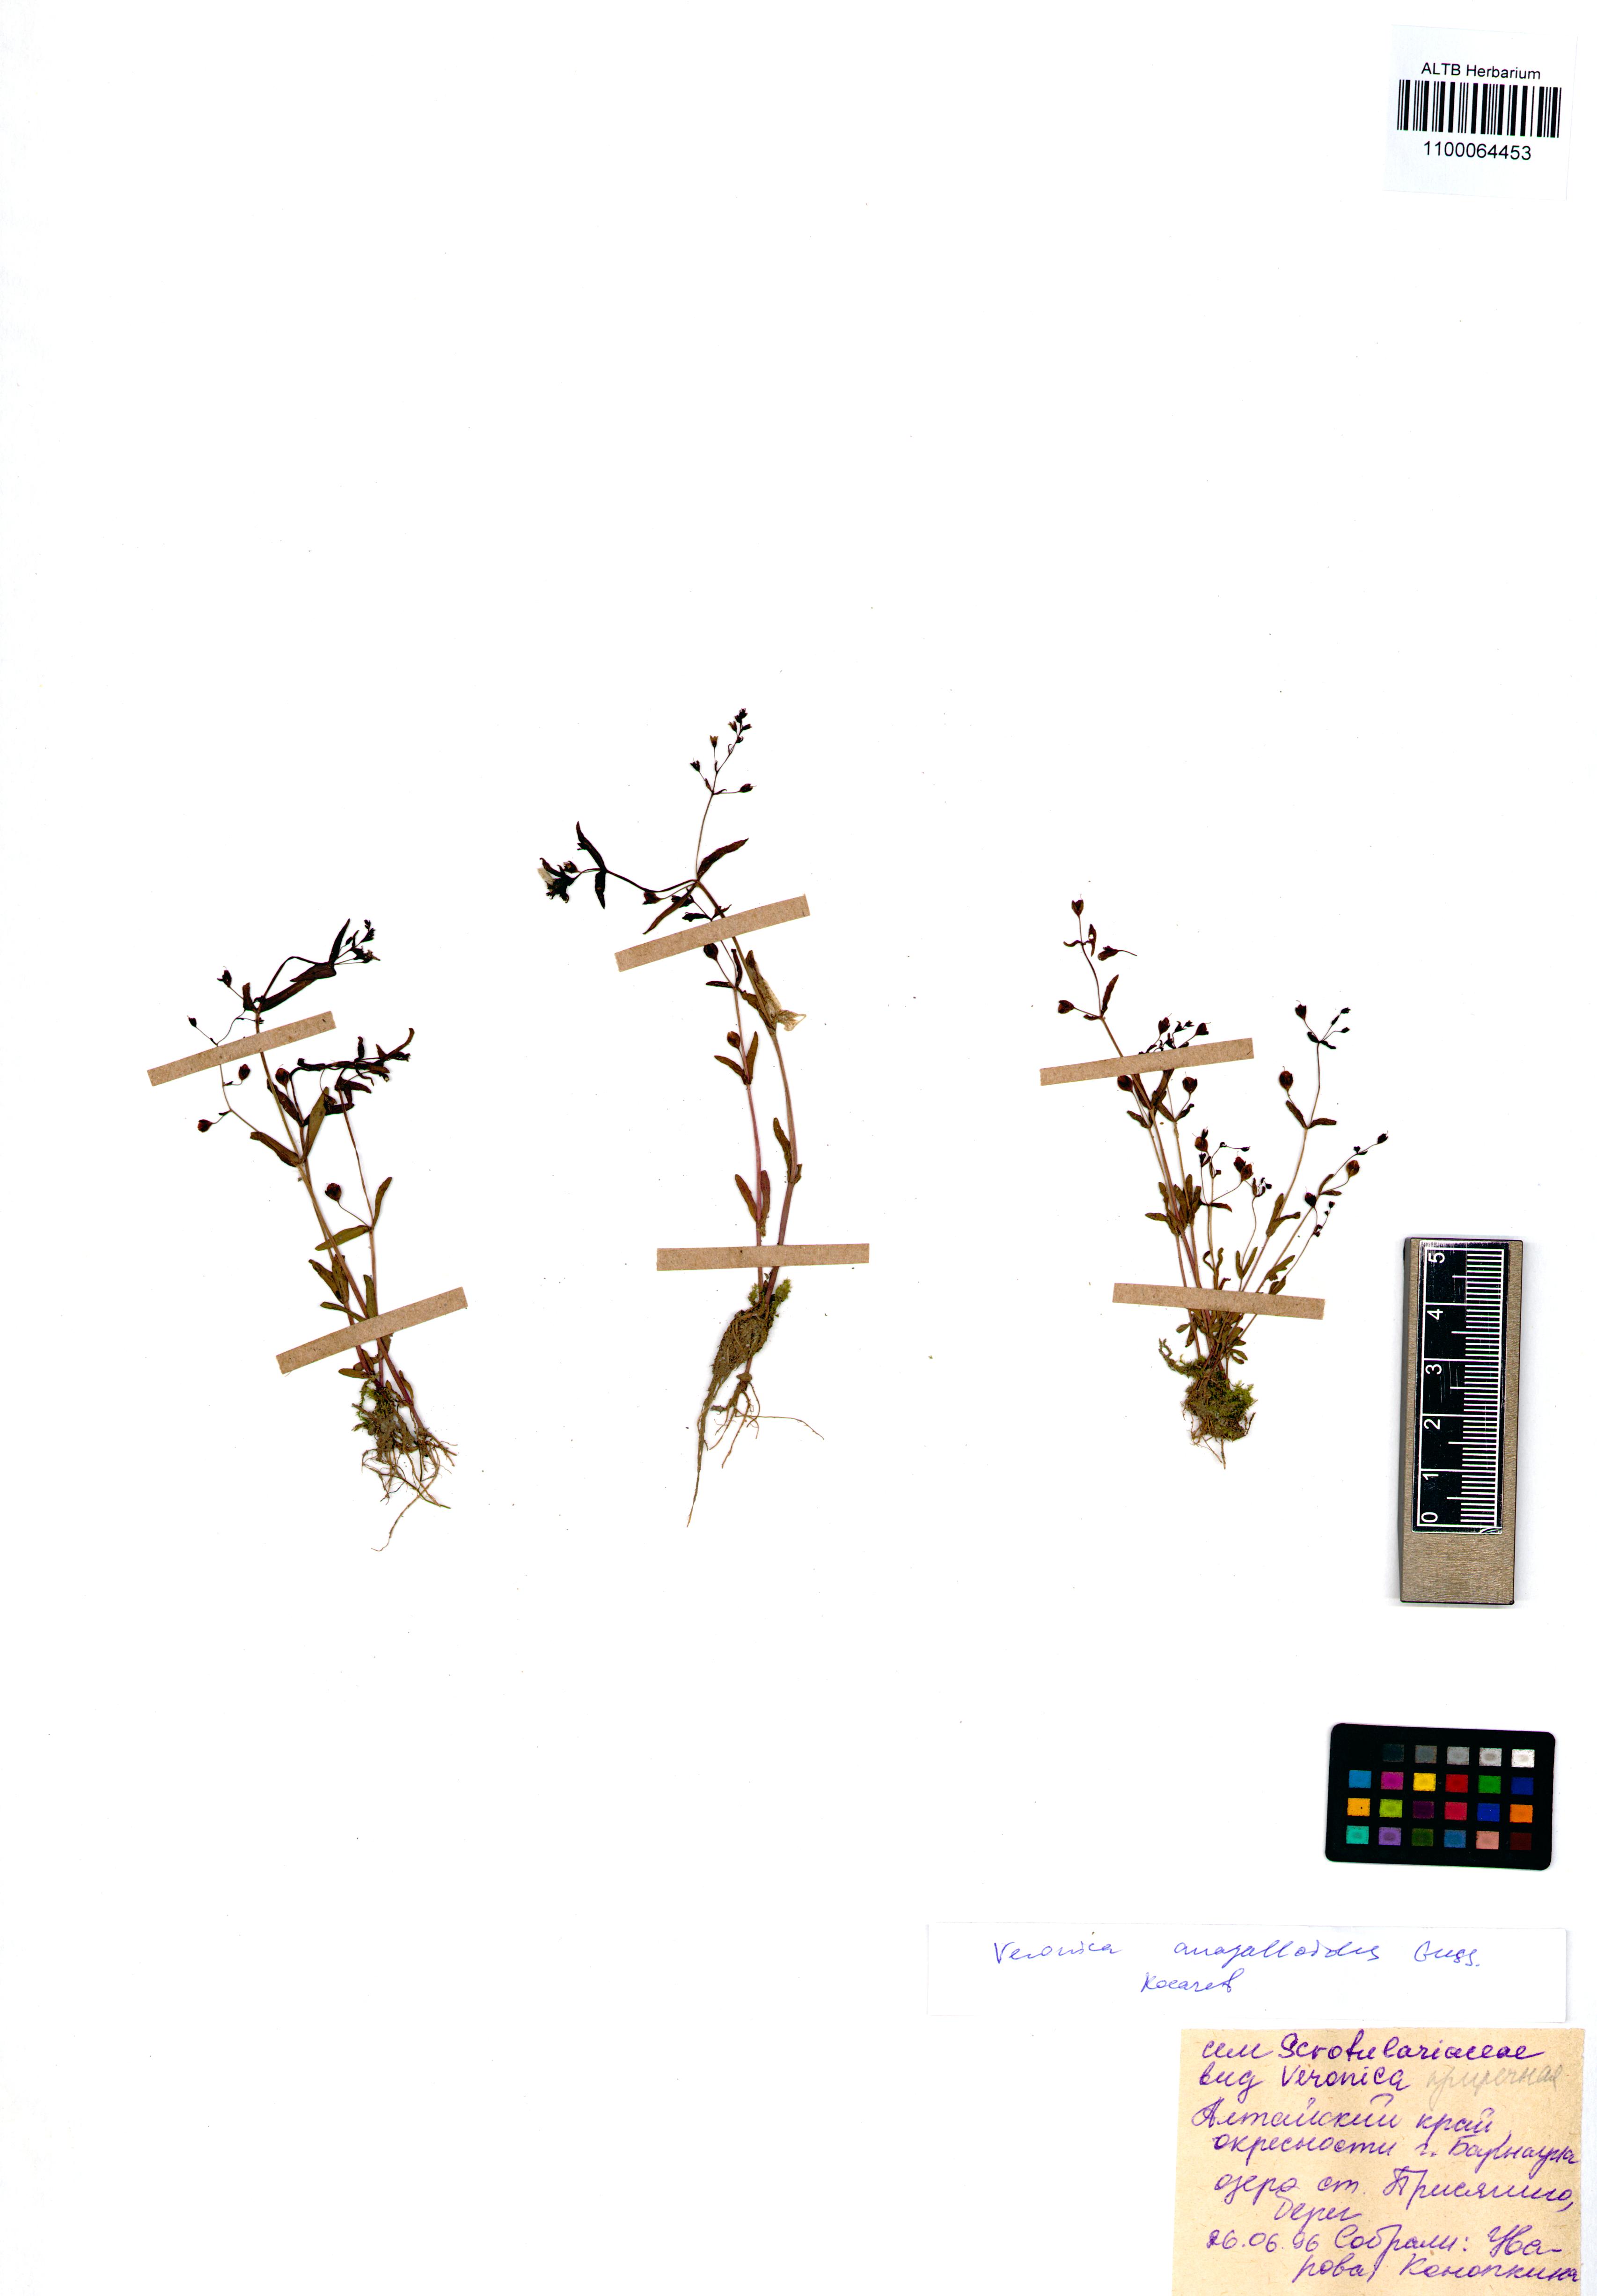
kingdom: Plantae
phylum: Tracheophyta
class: Magnoliopsida
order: Lamiales
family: Plantaginaceae
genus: Veronica
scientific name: Veronica anagalloides
